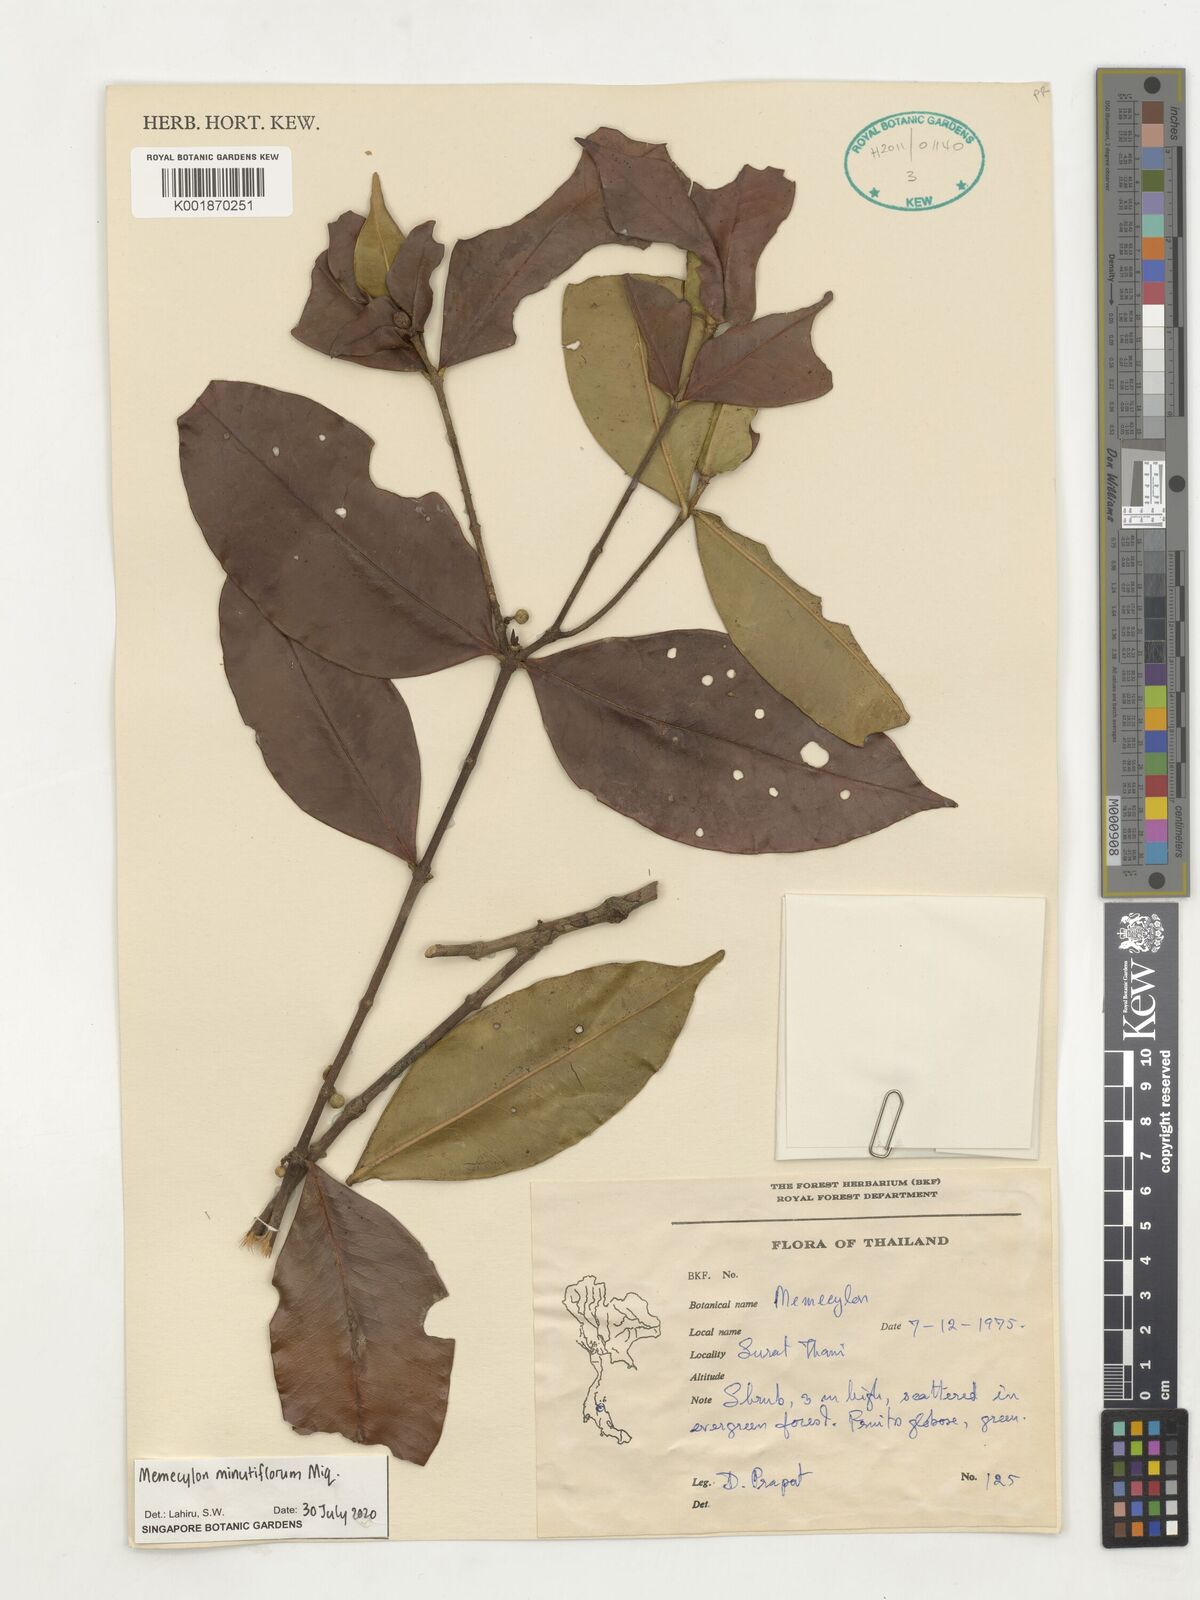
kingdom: Plantae
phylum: Tracheophyta
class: Magnoliopsida
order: Myrtales
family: Melastomataceae
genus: Memecylon
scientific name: Memecylon minutiflorum
